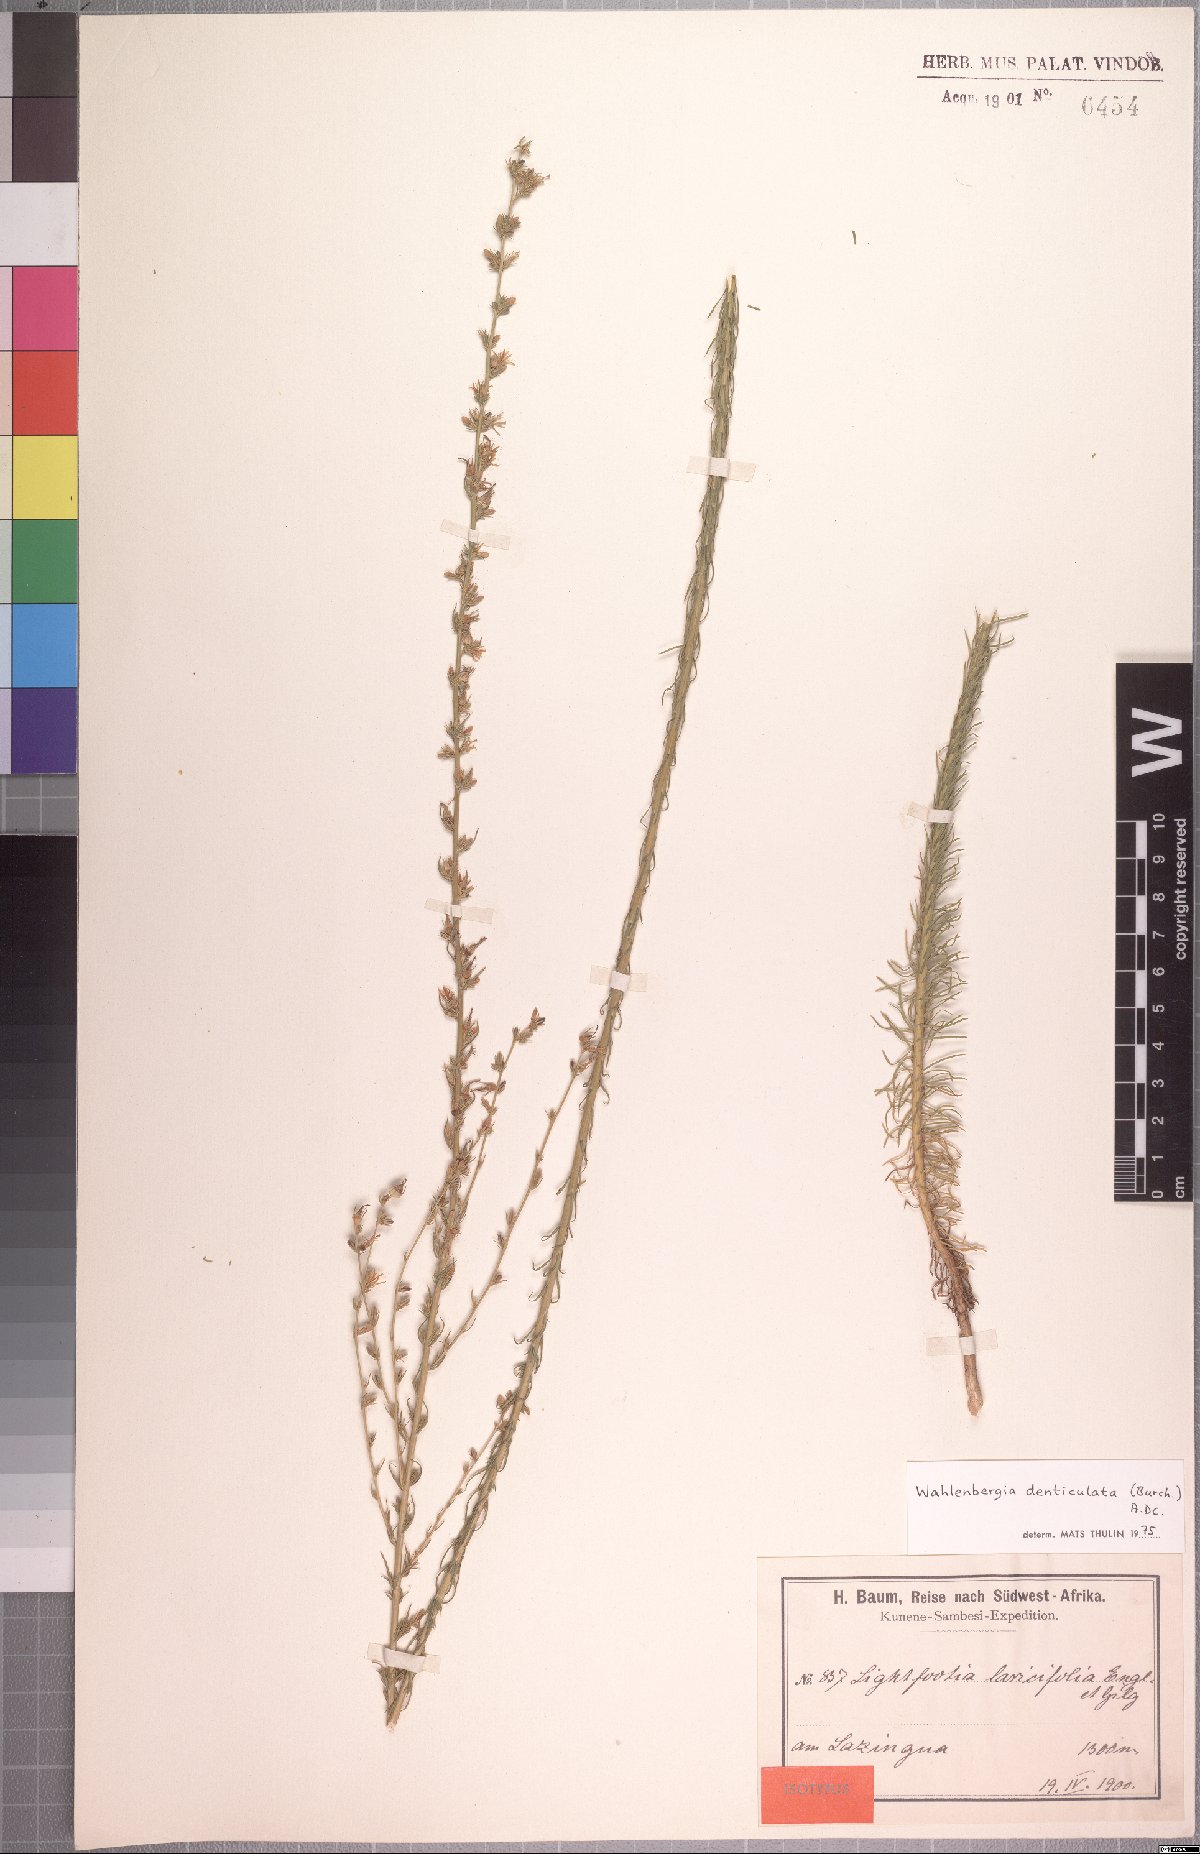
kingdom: Plantae
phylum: Tracheophyta
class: Magnoliopsida
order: Asterales
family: Campanulaceae
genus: Wahlenbergia
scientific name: Wahlenbergia denticulata
